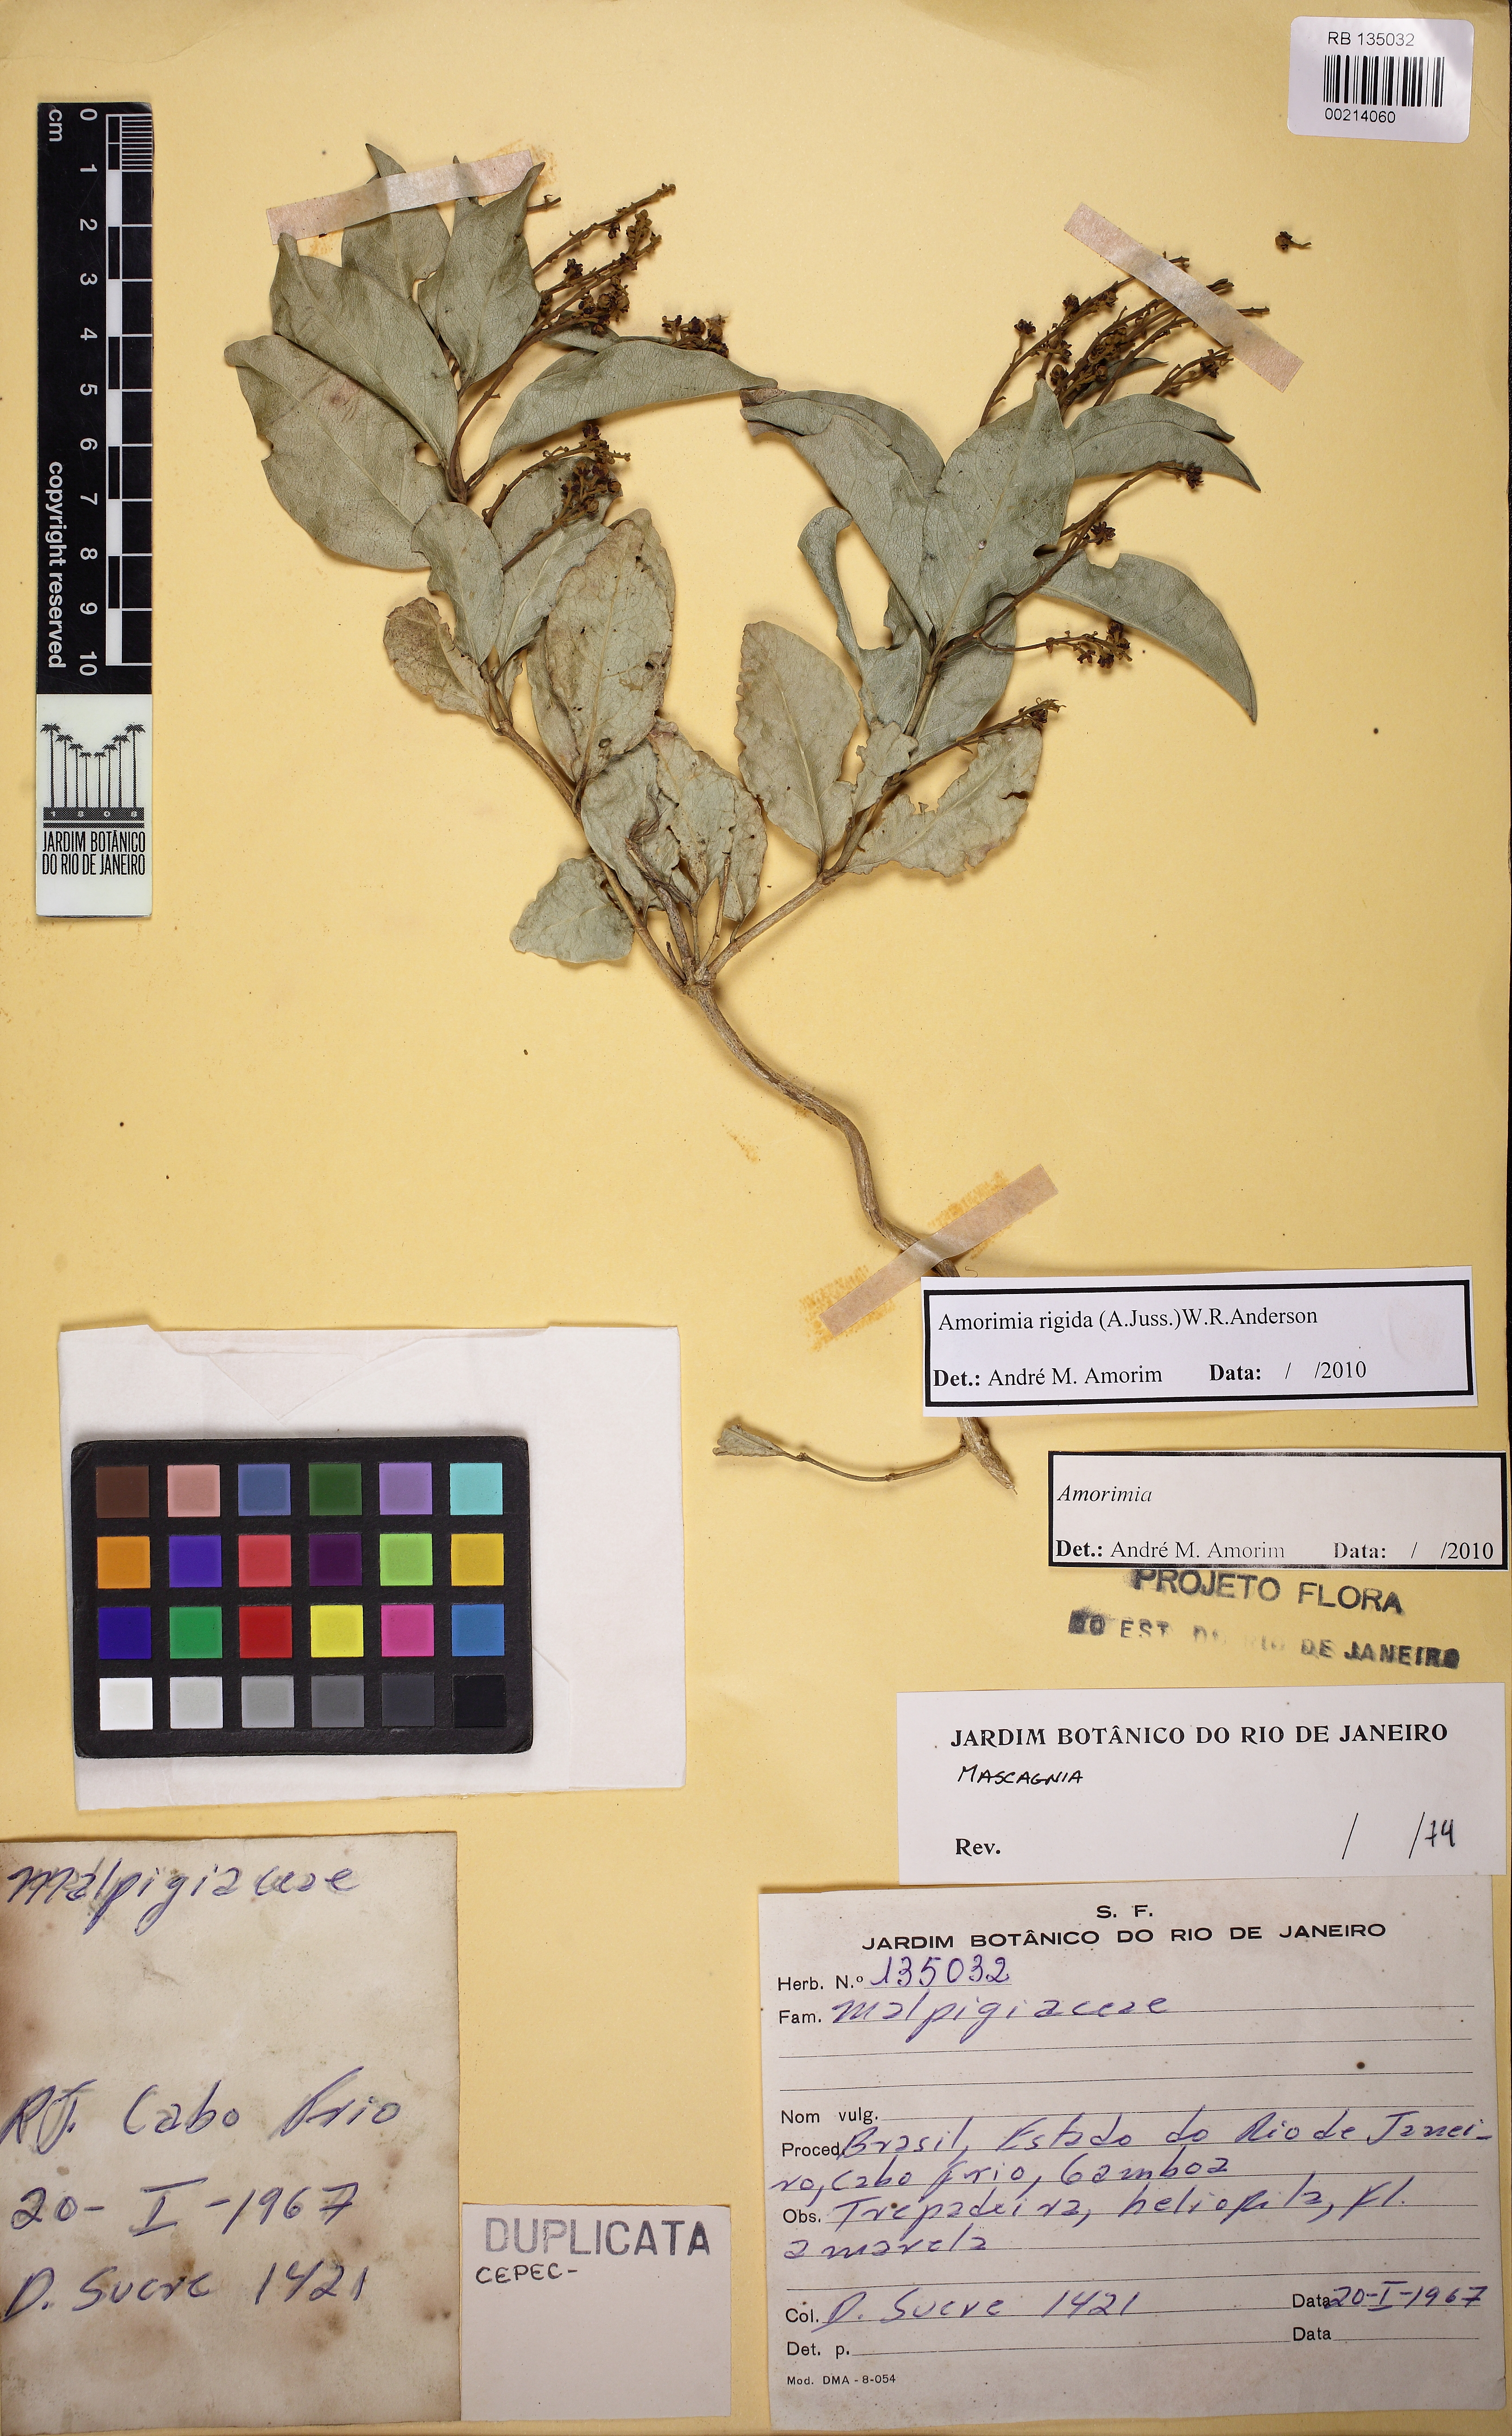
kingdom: Plantae
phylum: Tracheophyta
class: Magnoliopsida
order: Malpighiales
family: Malpighiaceae
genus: Amorimia
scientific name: Amorimia coriacea
